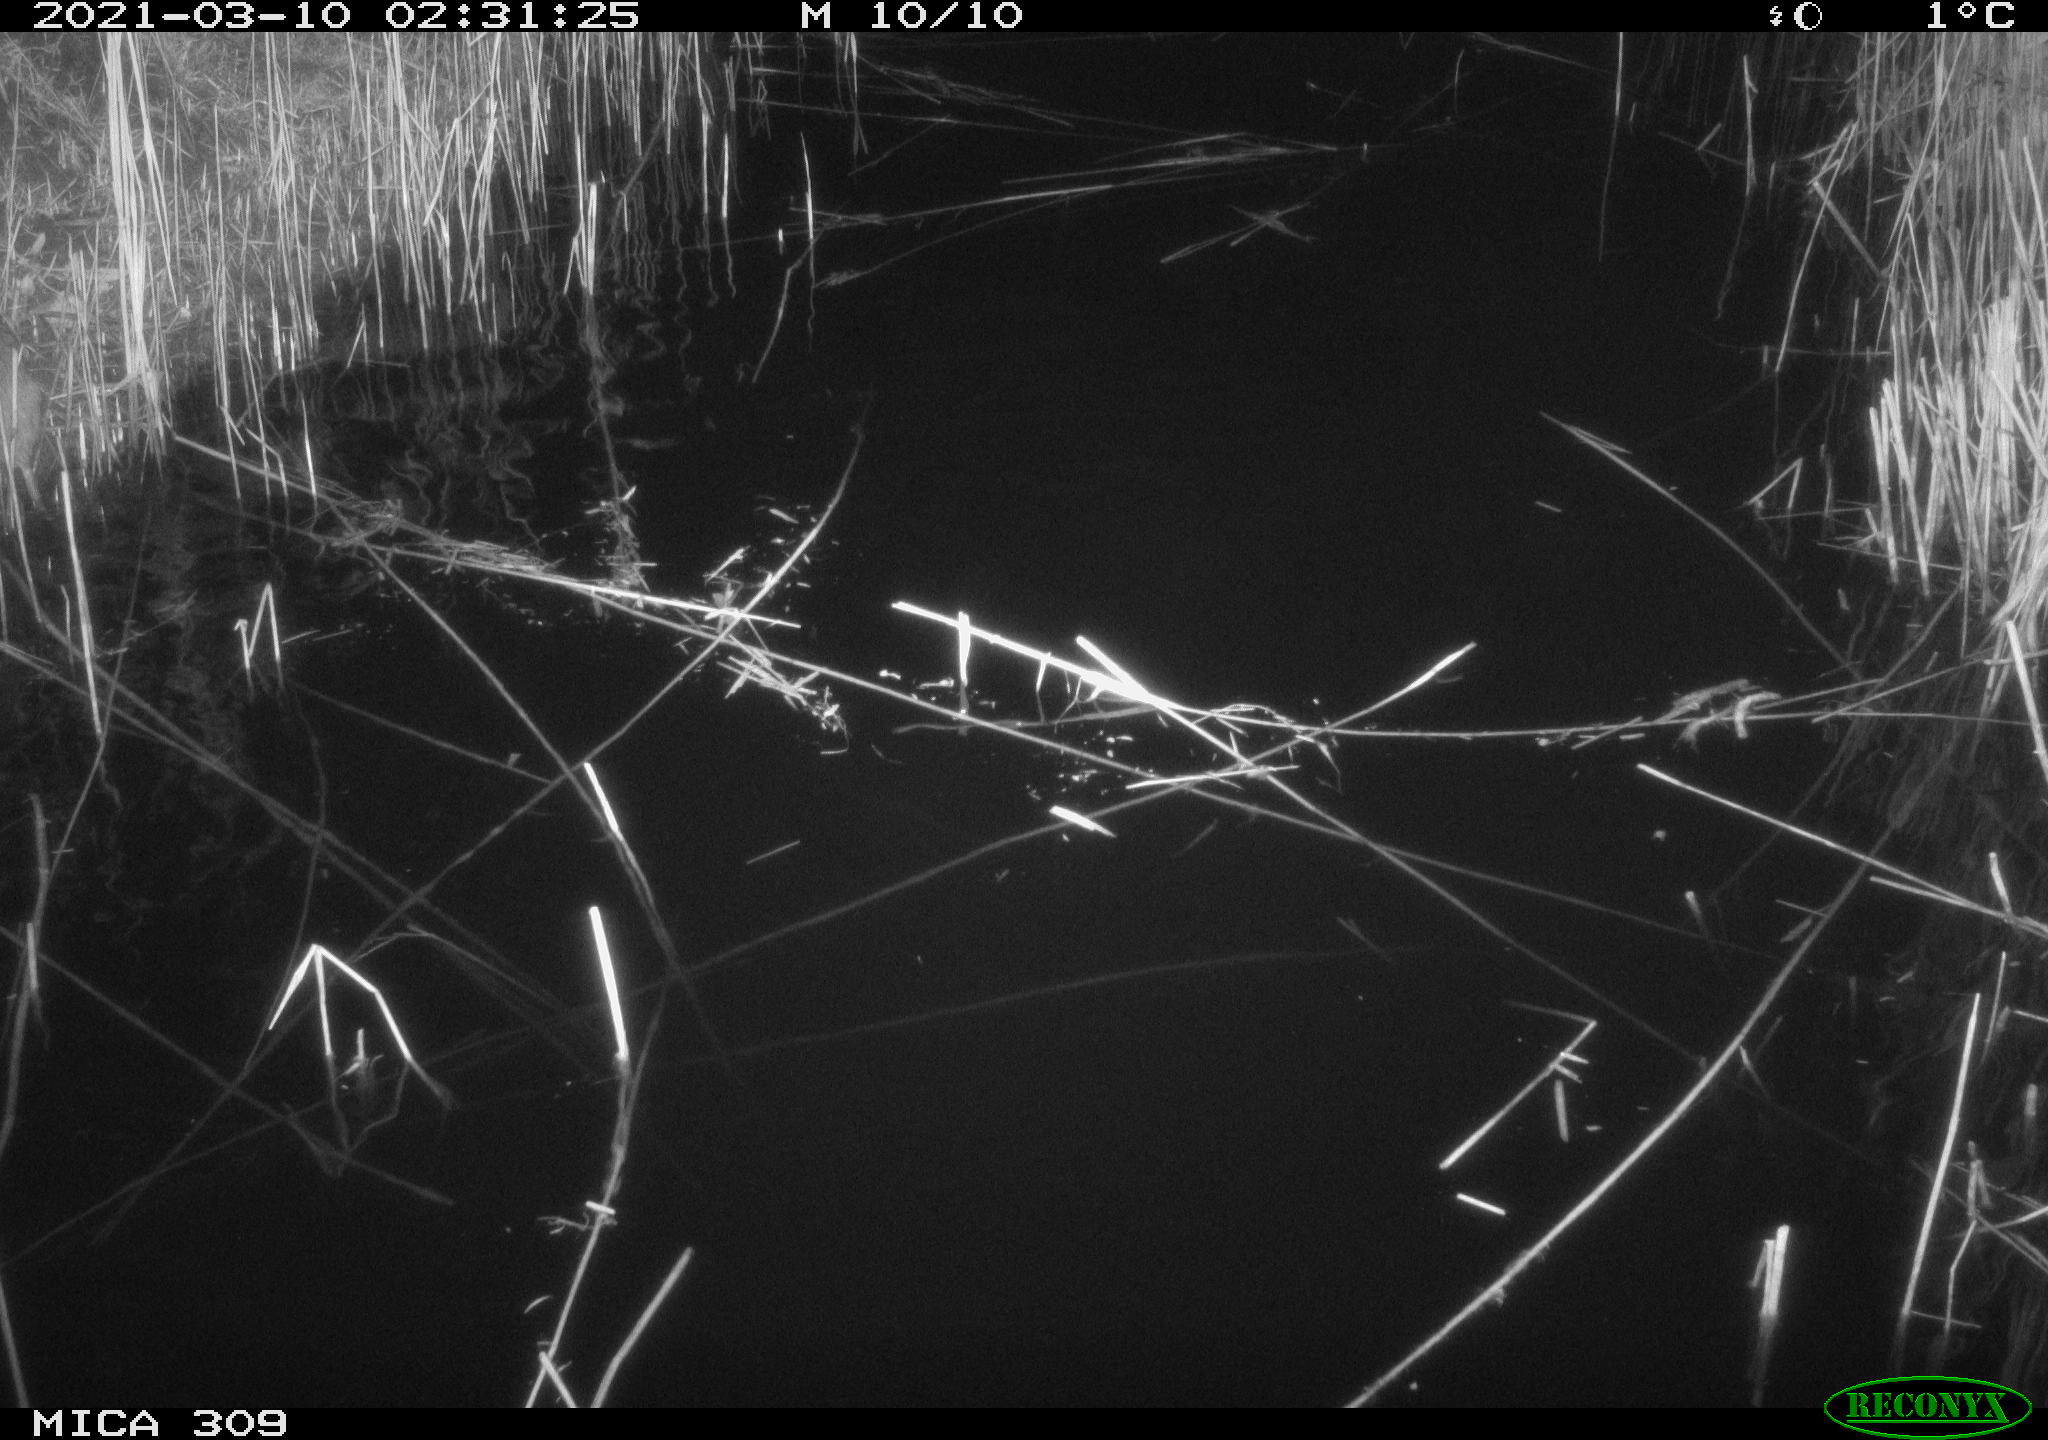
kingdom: Animalia
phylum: Chordata
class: Mammalia
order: Rodentia
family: Muridae
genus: Rattus
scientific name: Rattus norvegicus
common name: Brown rat
